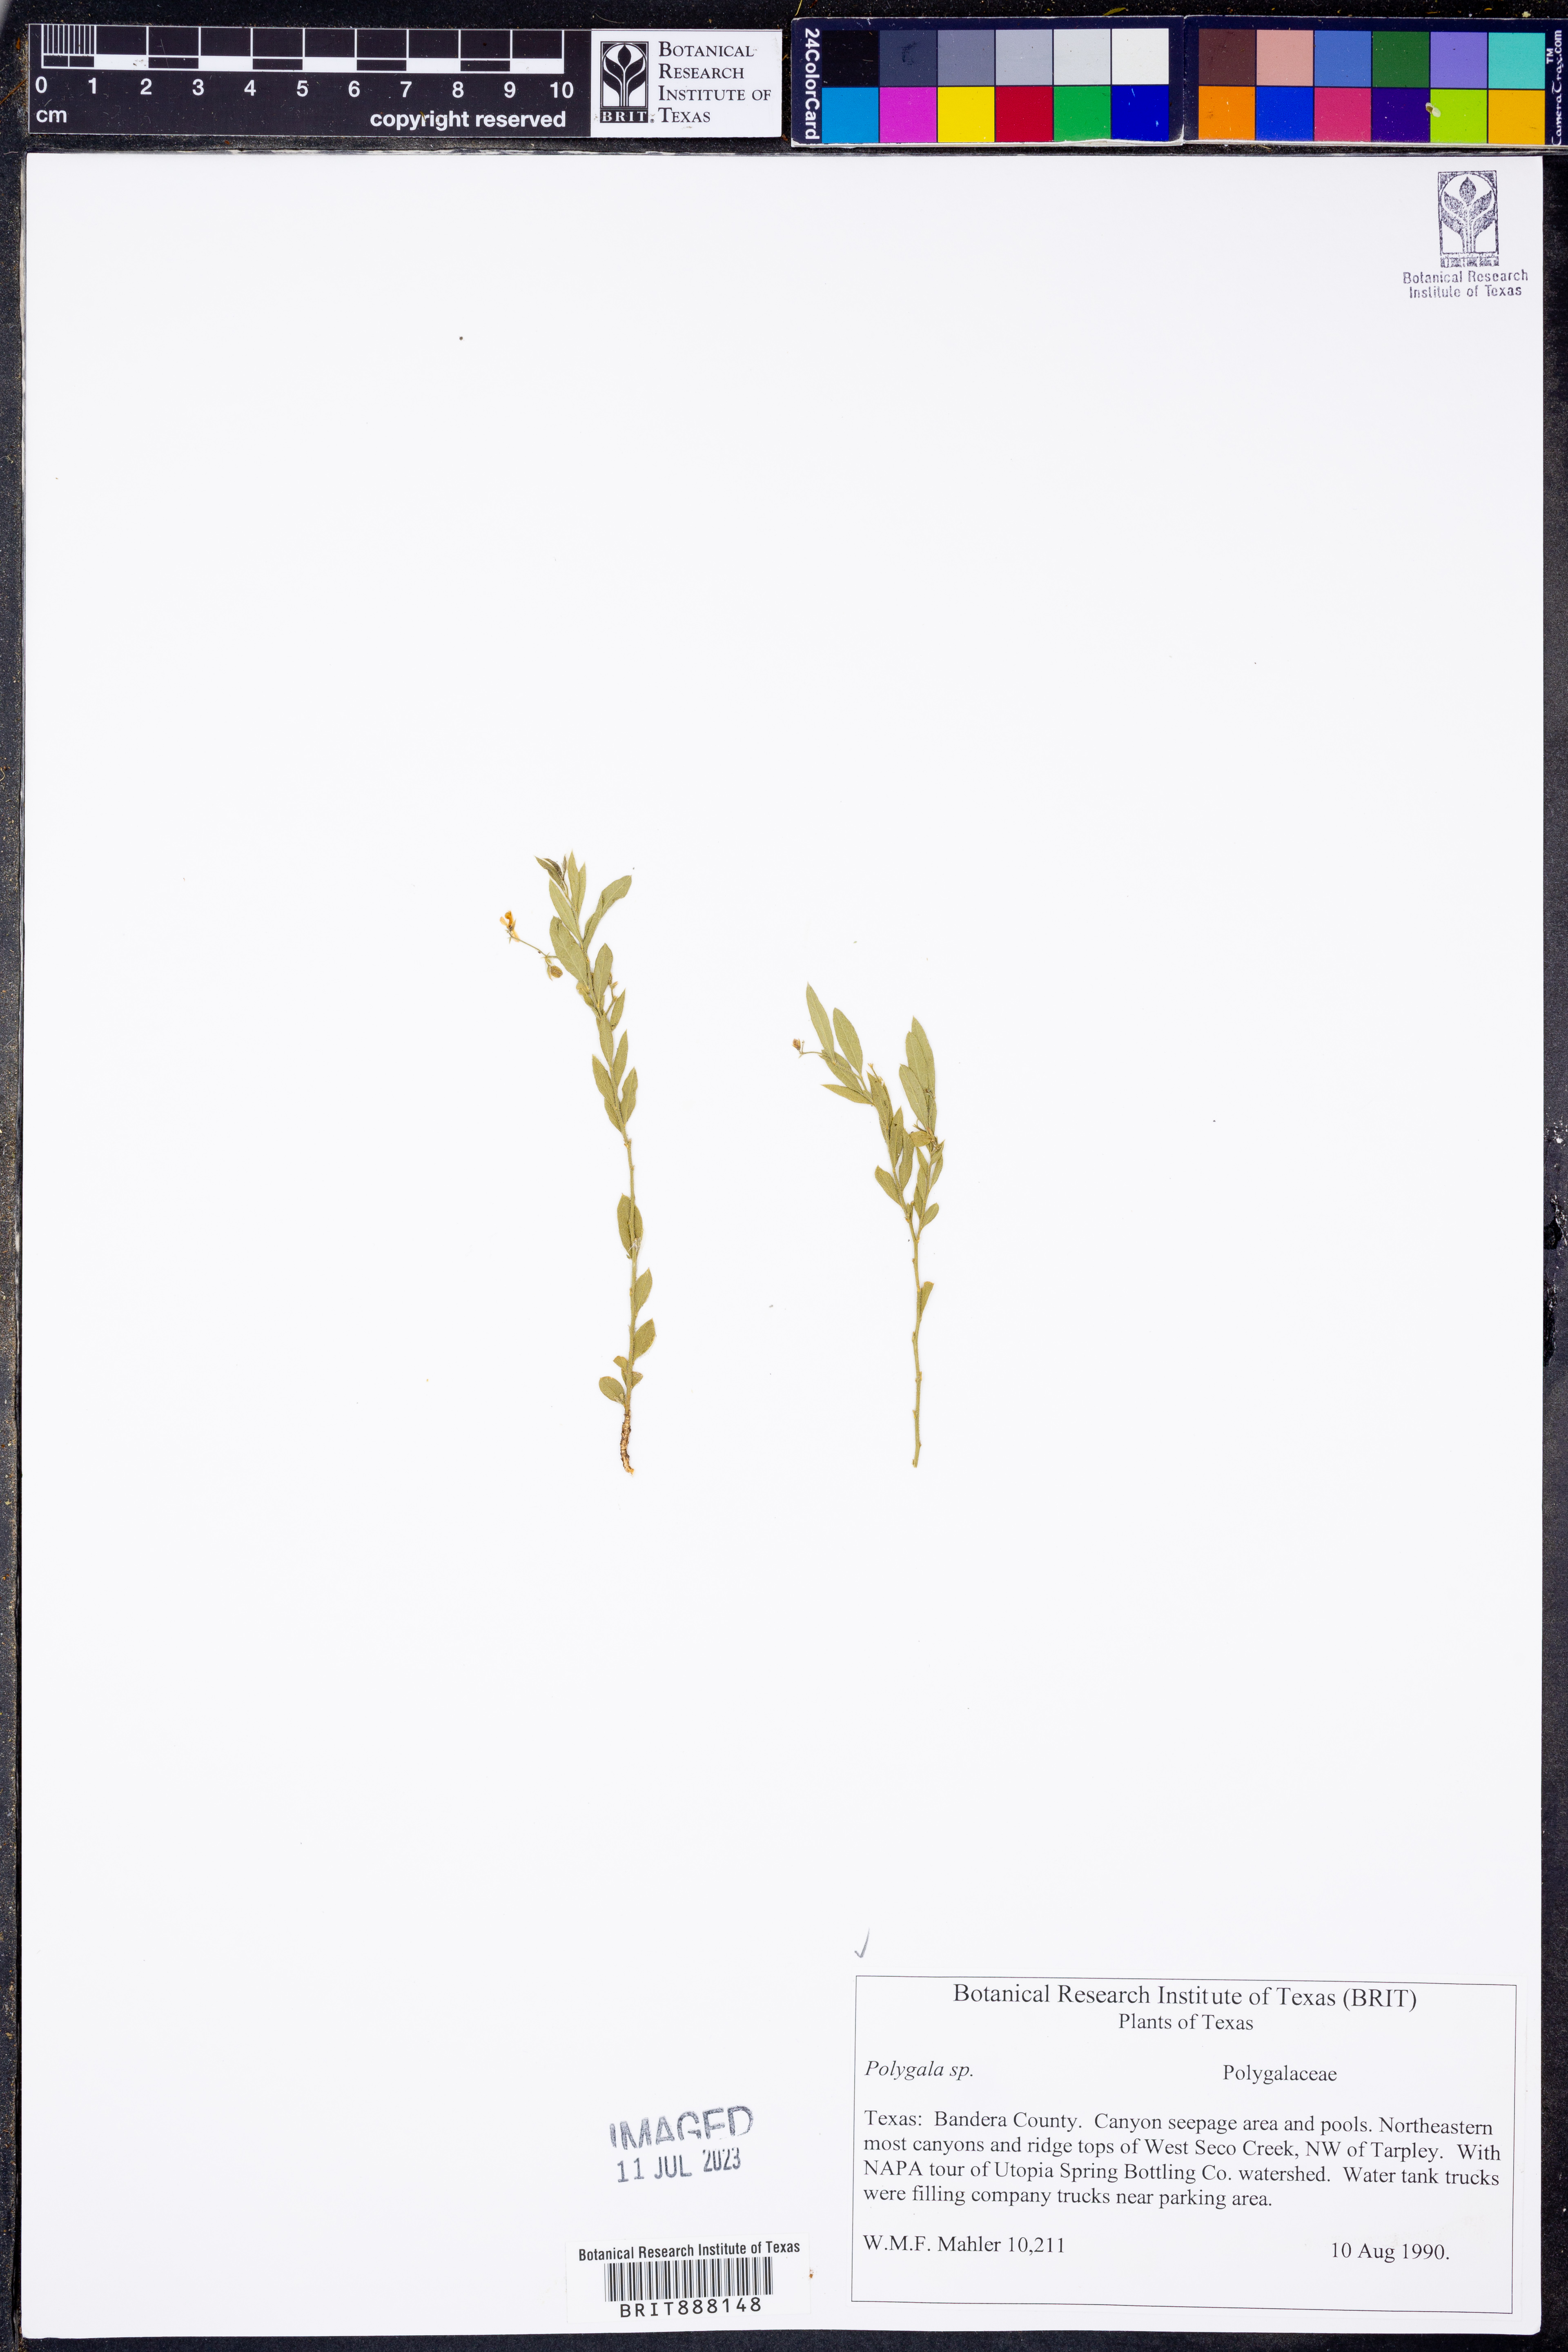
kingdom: Plantae
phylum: Tracheophyta
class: Magnoliopsida
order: Fabales
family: Polygalaceae
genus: Polygala
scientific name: Polygala
